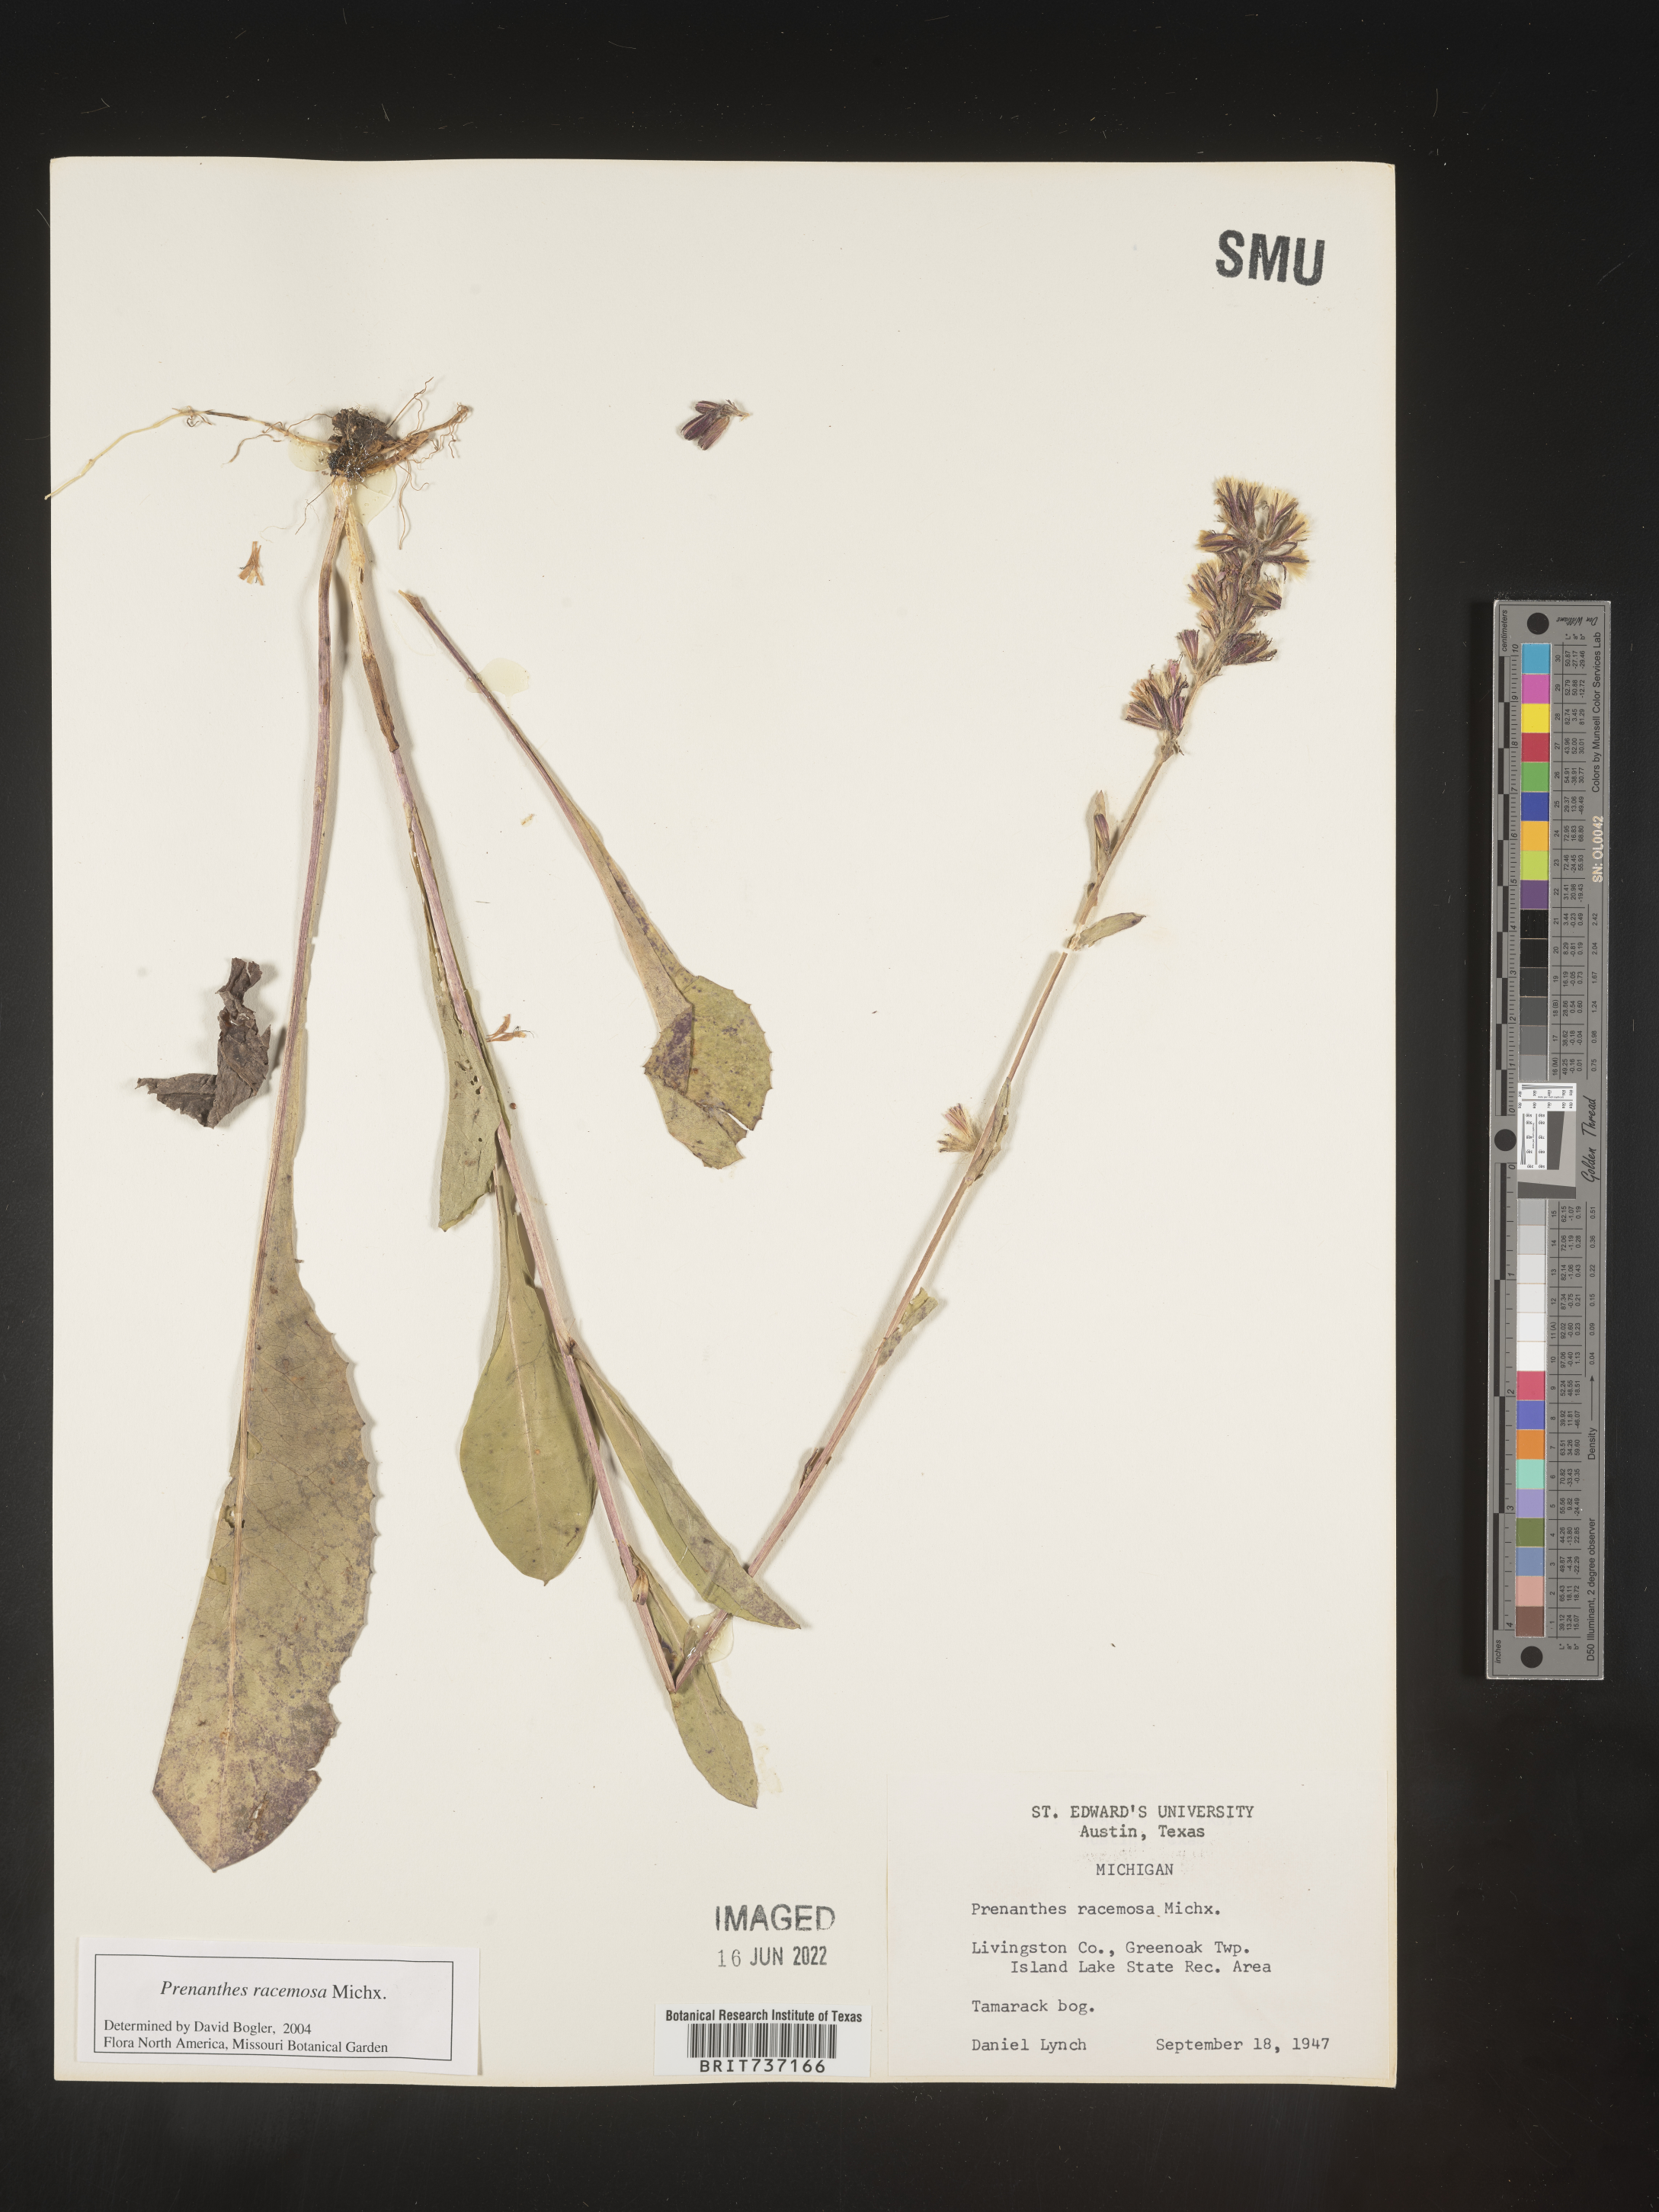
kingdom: Plantae
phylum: Tracheophyta
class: Magnoliopsida
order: Asterales
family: Asteraceae
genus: Prenanthes
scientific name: Prenanthes
